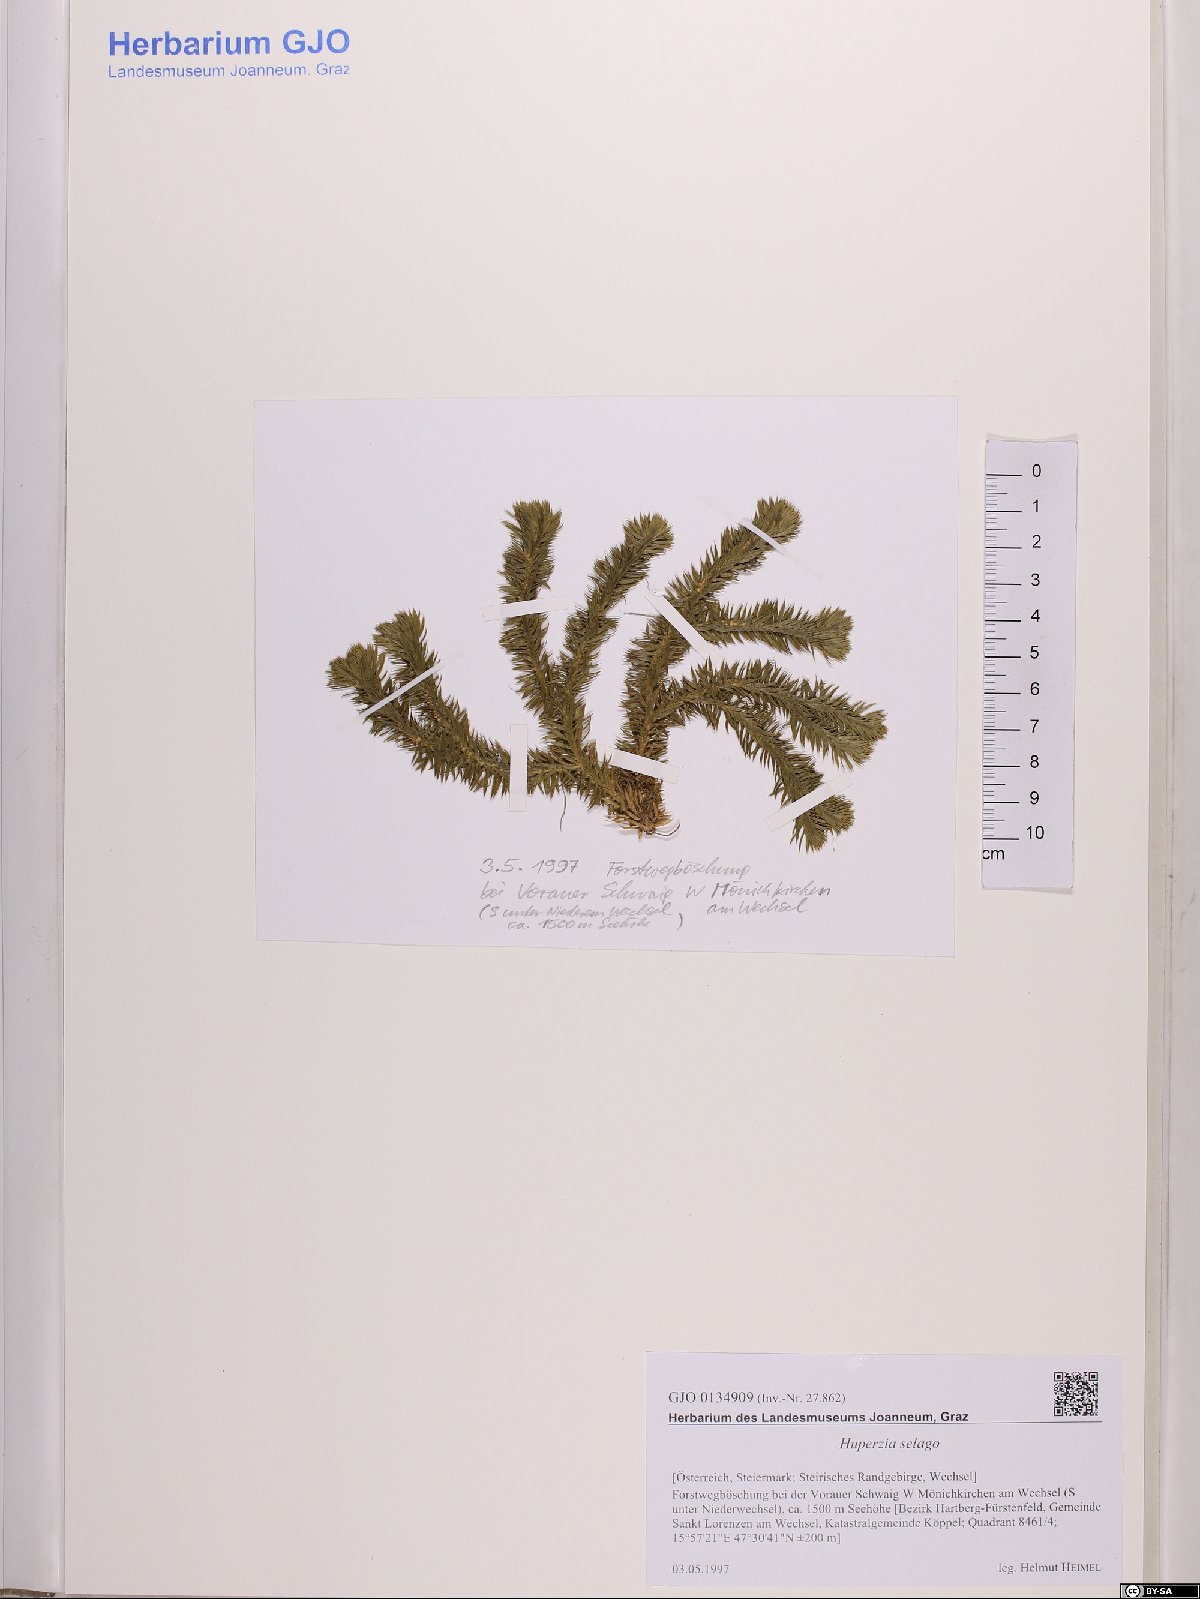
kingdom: Plantae
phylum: Tracheophyta
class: Lycopodiopsida
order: Lycopodiales
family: Lycopodiaceae
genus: Huperzia
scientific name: Huperzia selago
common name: Northern firmoss
